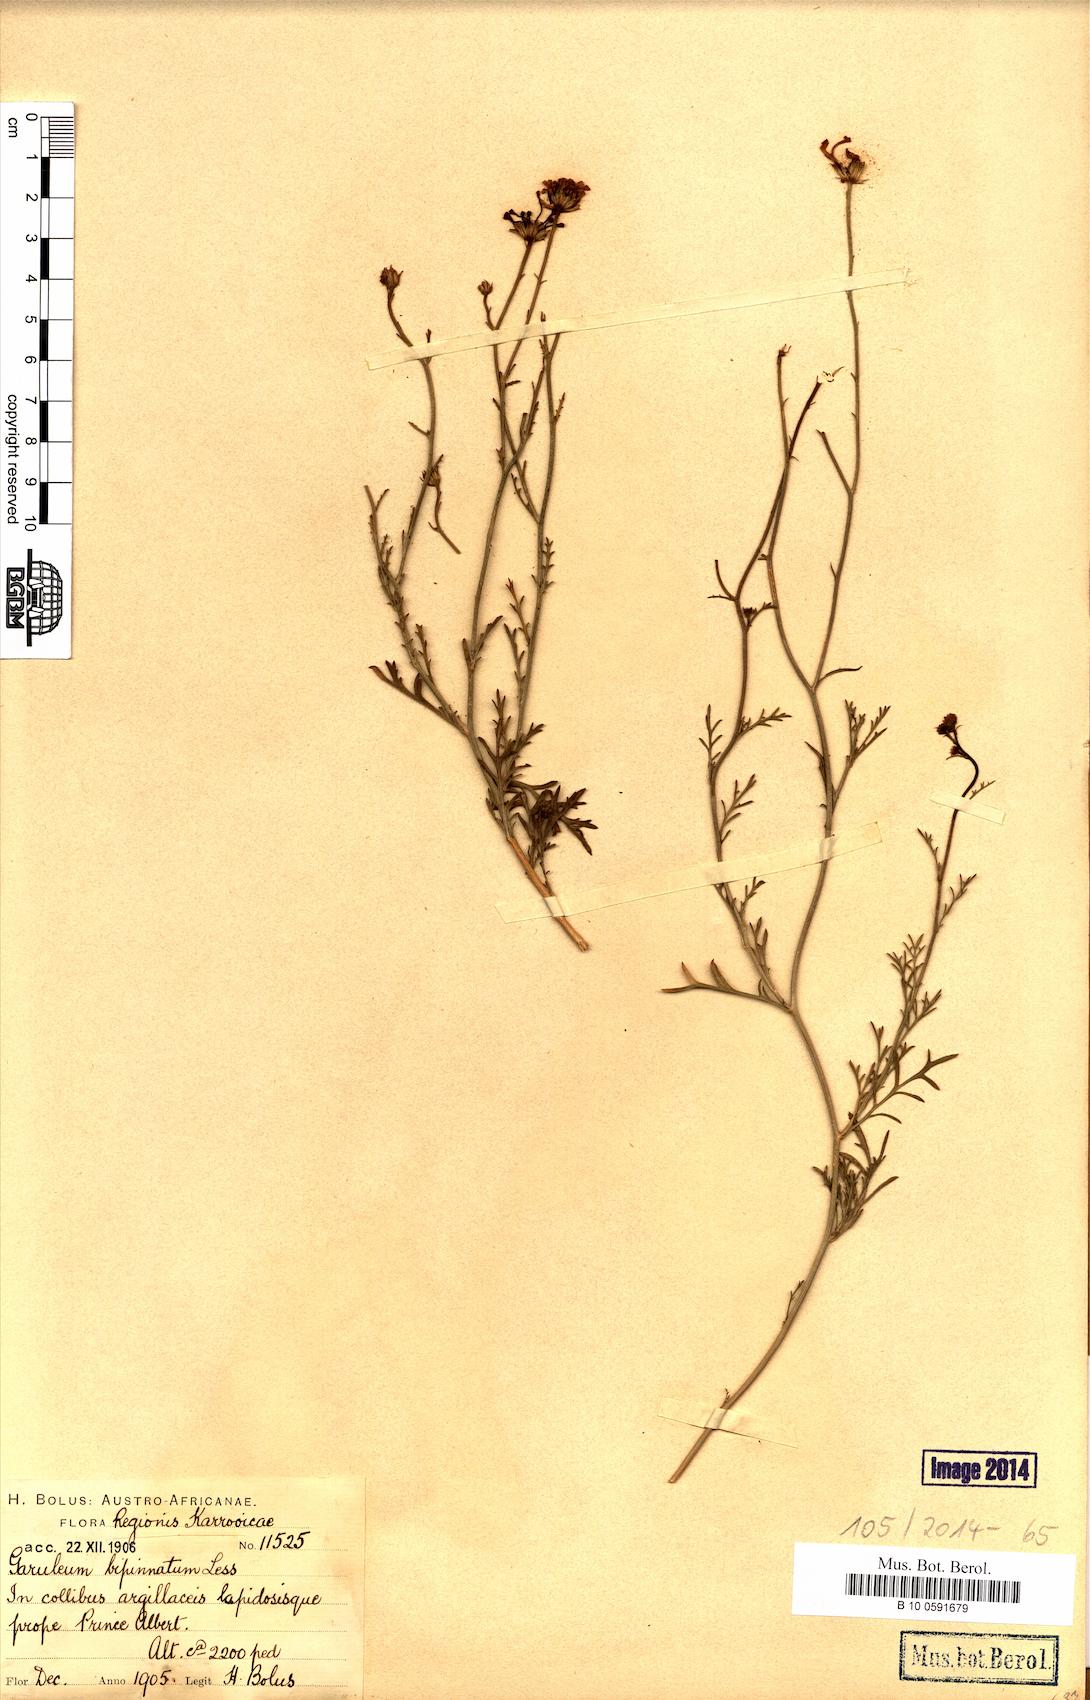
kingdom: Plantae
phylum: Tracheophyta
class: Magnoliopsida
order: Asterales
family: Asteraceae
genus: Garuleum
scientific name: Garuleum bipinnatum
